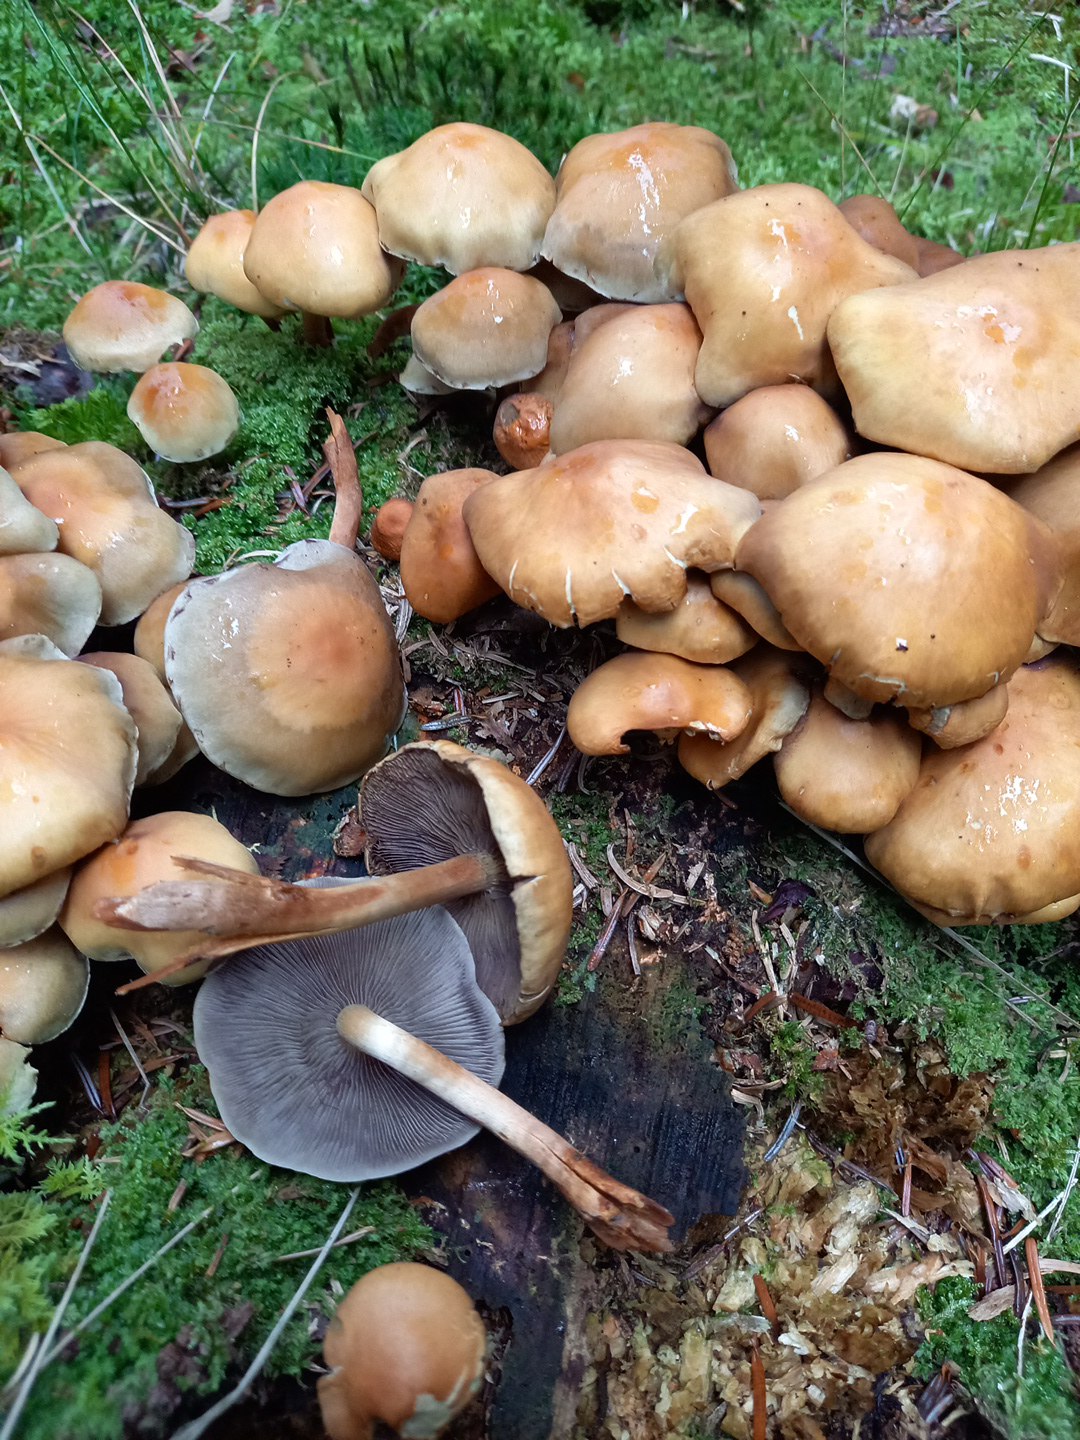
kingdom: Fungi
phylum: Basidiomycota
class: Agaricomycetes
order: Agaricales
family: Strophariaceae
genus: Hypholoma
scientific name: Hypholoma capnoides
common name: gran-svovlhat
